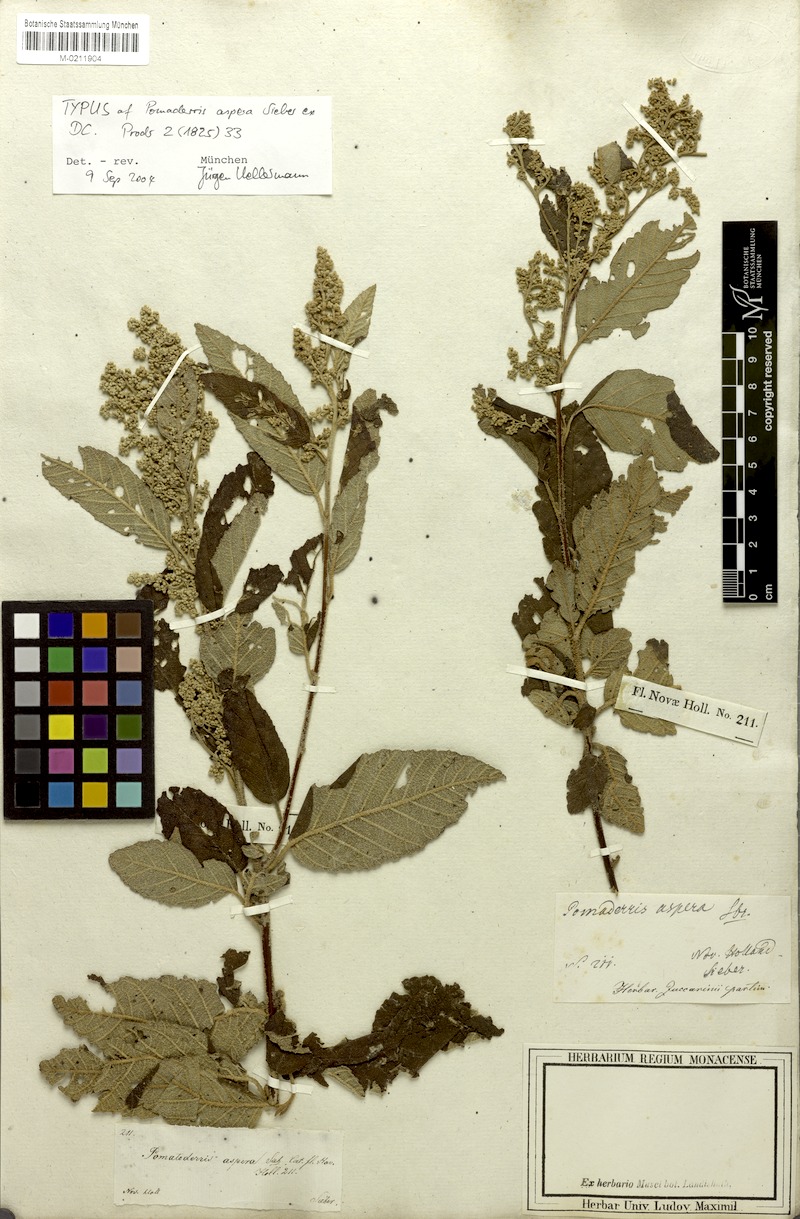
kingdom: Plantae
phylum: Tracheophyta
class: Magnoliopsida
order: Rosales
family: Rhamnaceae
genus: Pomaderris
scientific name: Pomaderris aspera
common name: Hazel pomaderris
